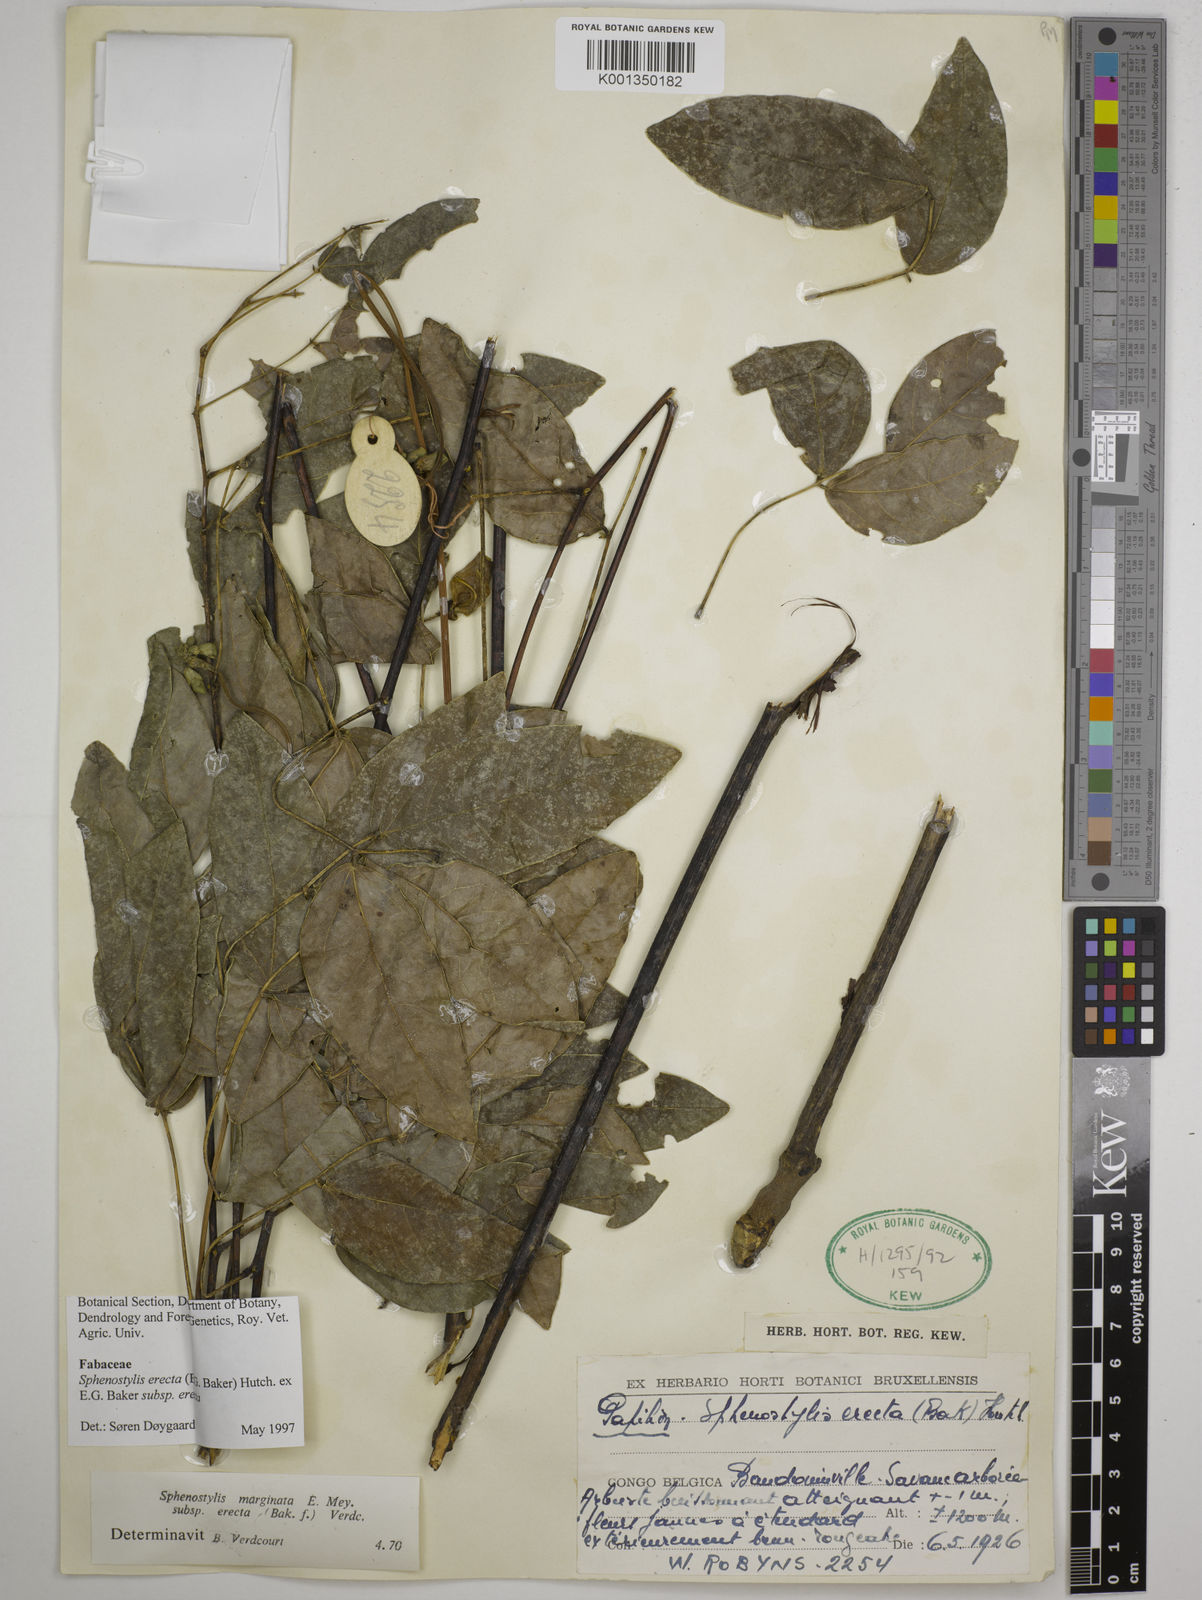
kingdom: Plantae
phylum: Tracheophyta
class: Magnoliopsida
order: Fabales
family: Fabaceae
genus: Sphenostylis
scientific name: Sphenostylis erecta
